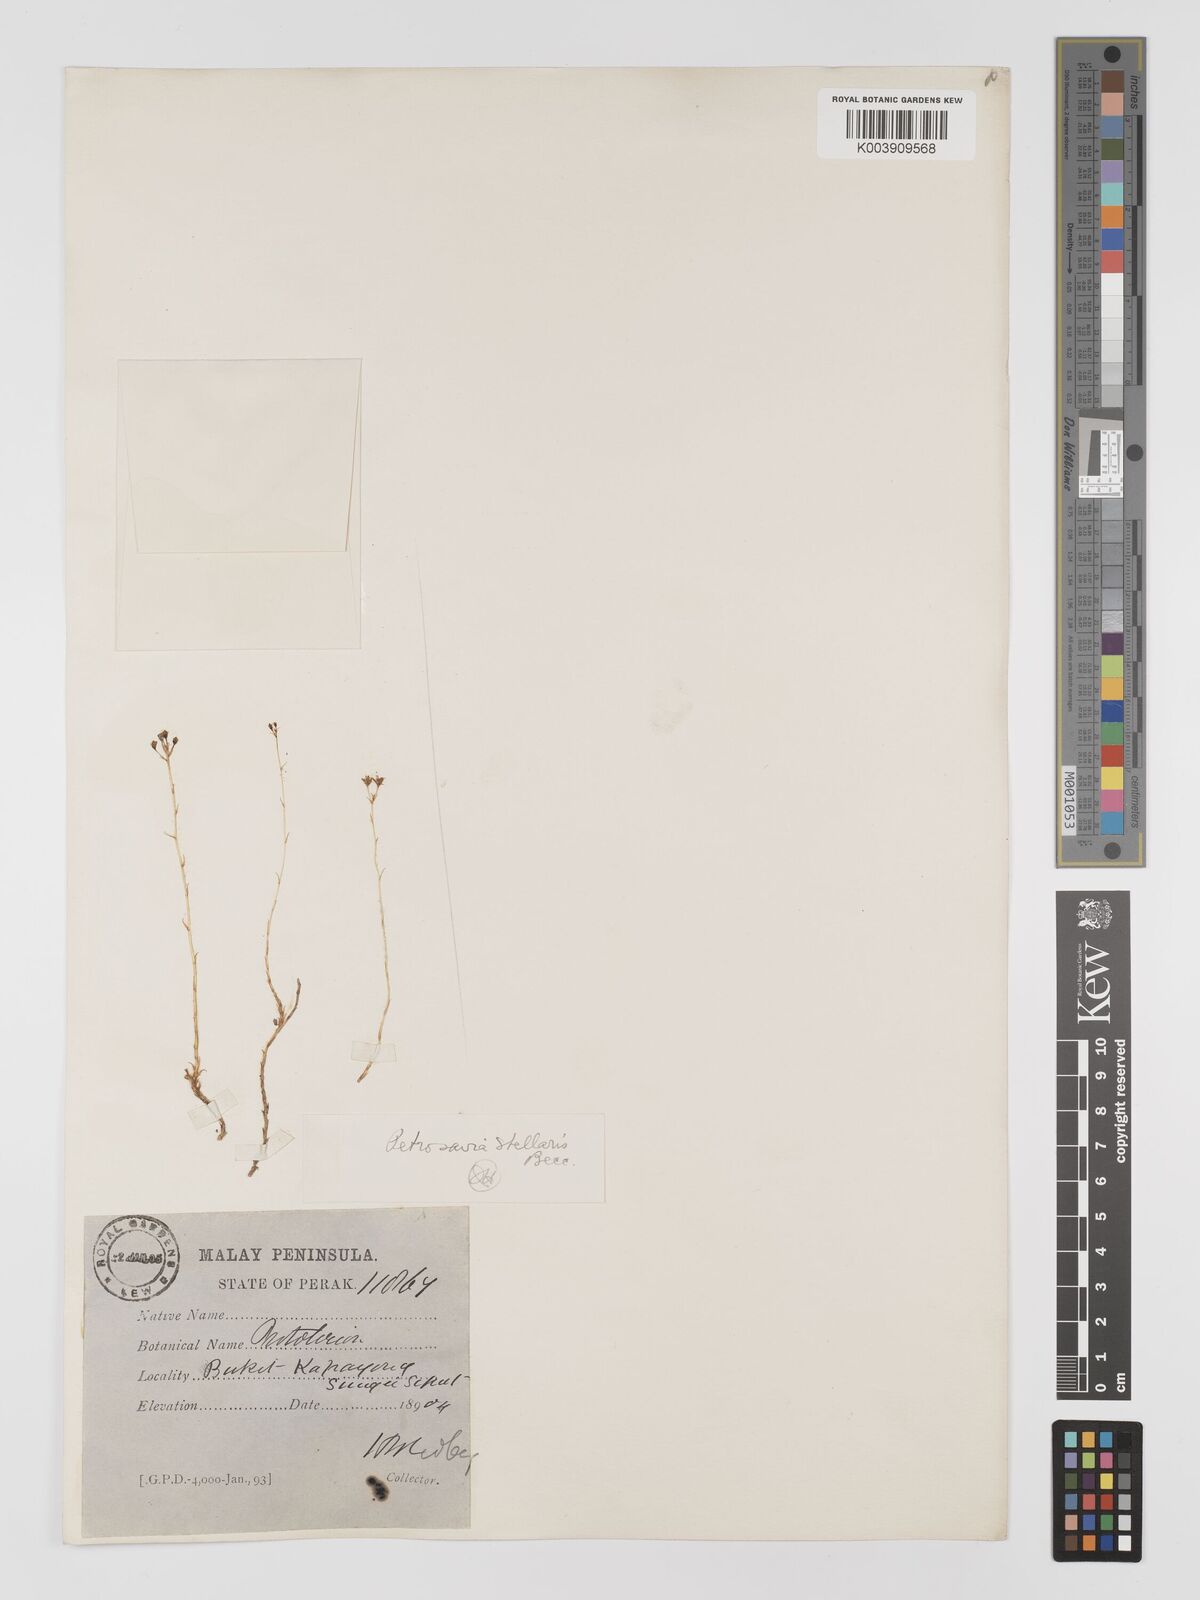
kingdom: Plantae
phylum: Tracheophyta
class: Liliopsida
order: Petrosaviales
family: Petrosaviaceae
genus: Petrosavia
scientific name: Petrosavia stellaris
